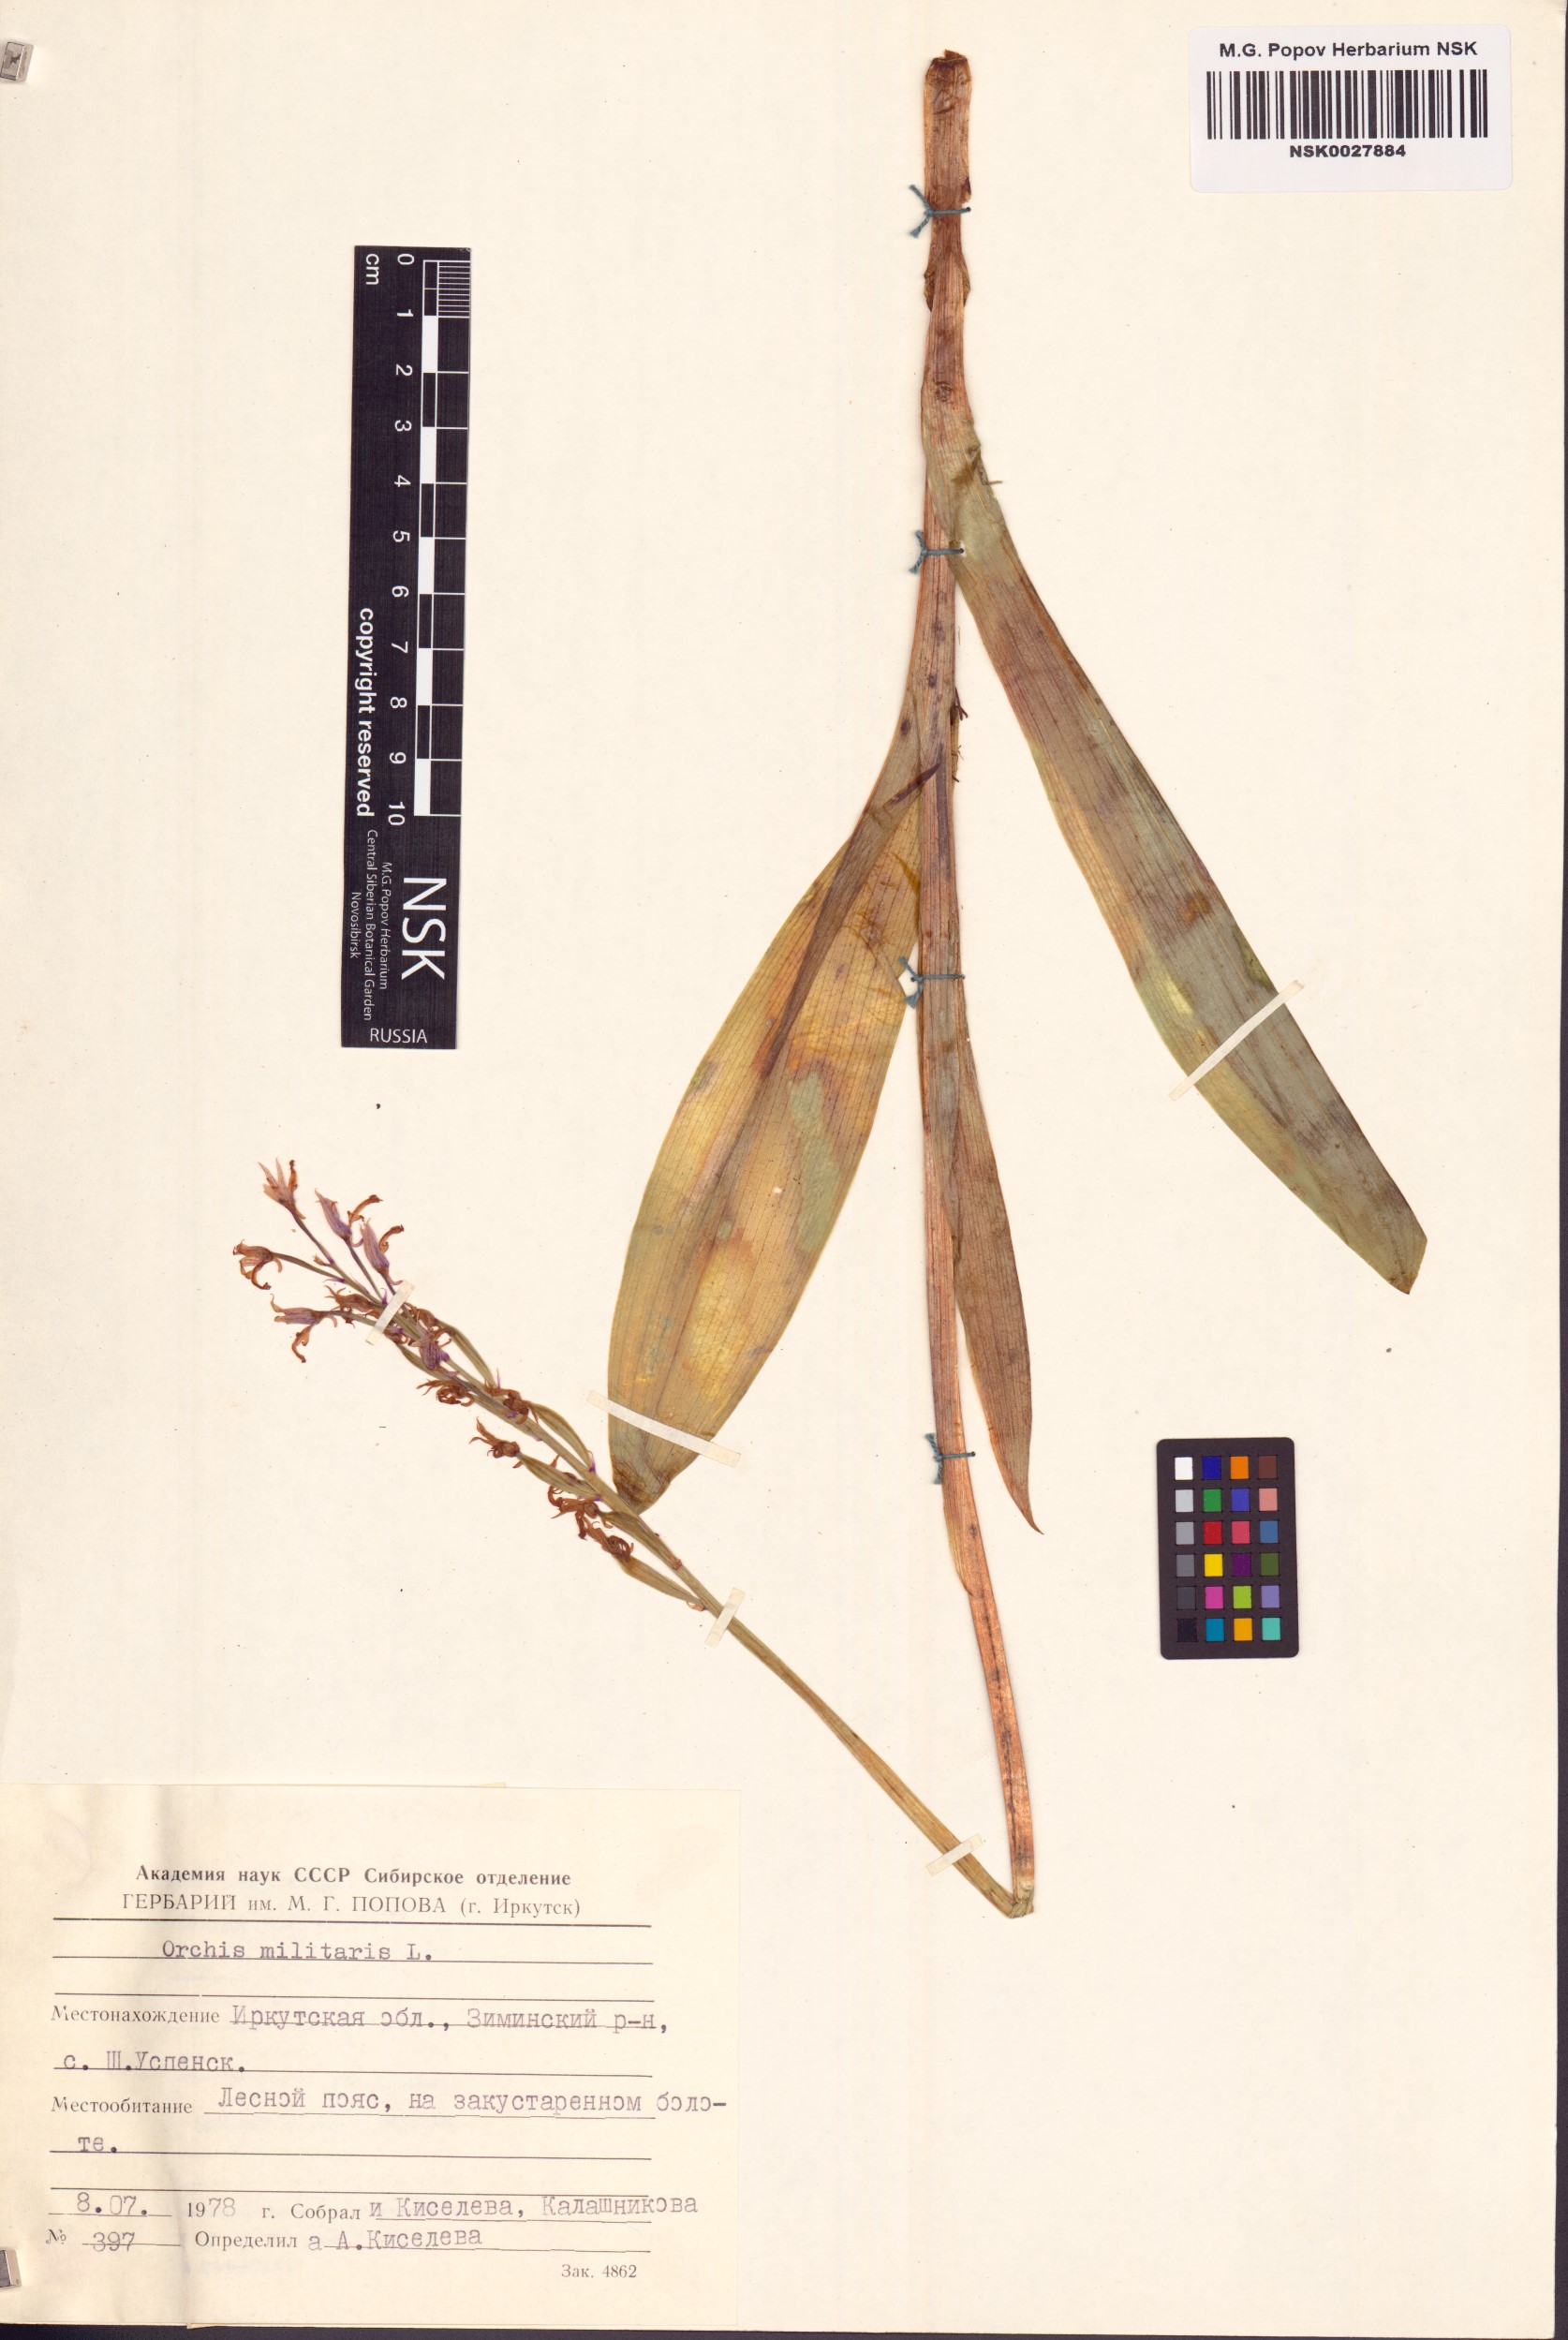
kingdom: Plantae
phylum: Tracheophyta
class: Liliopsida
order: Asparagales
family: Orchidaceae
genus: Orchis
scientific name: Orchis militaris
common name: Military orchid
